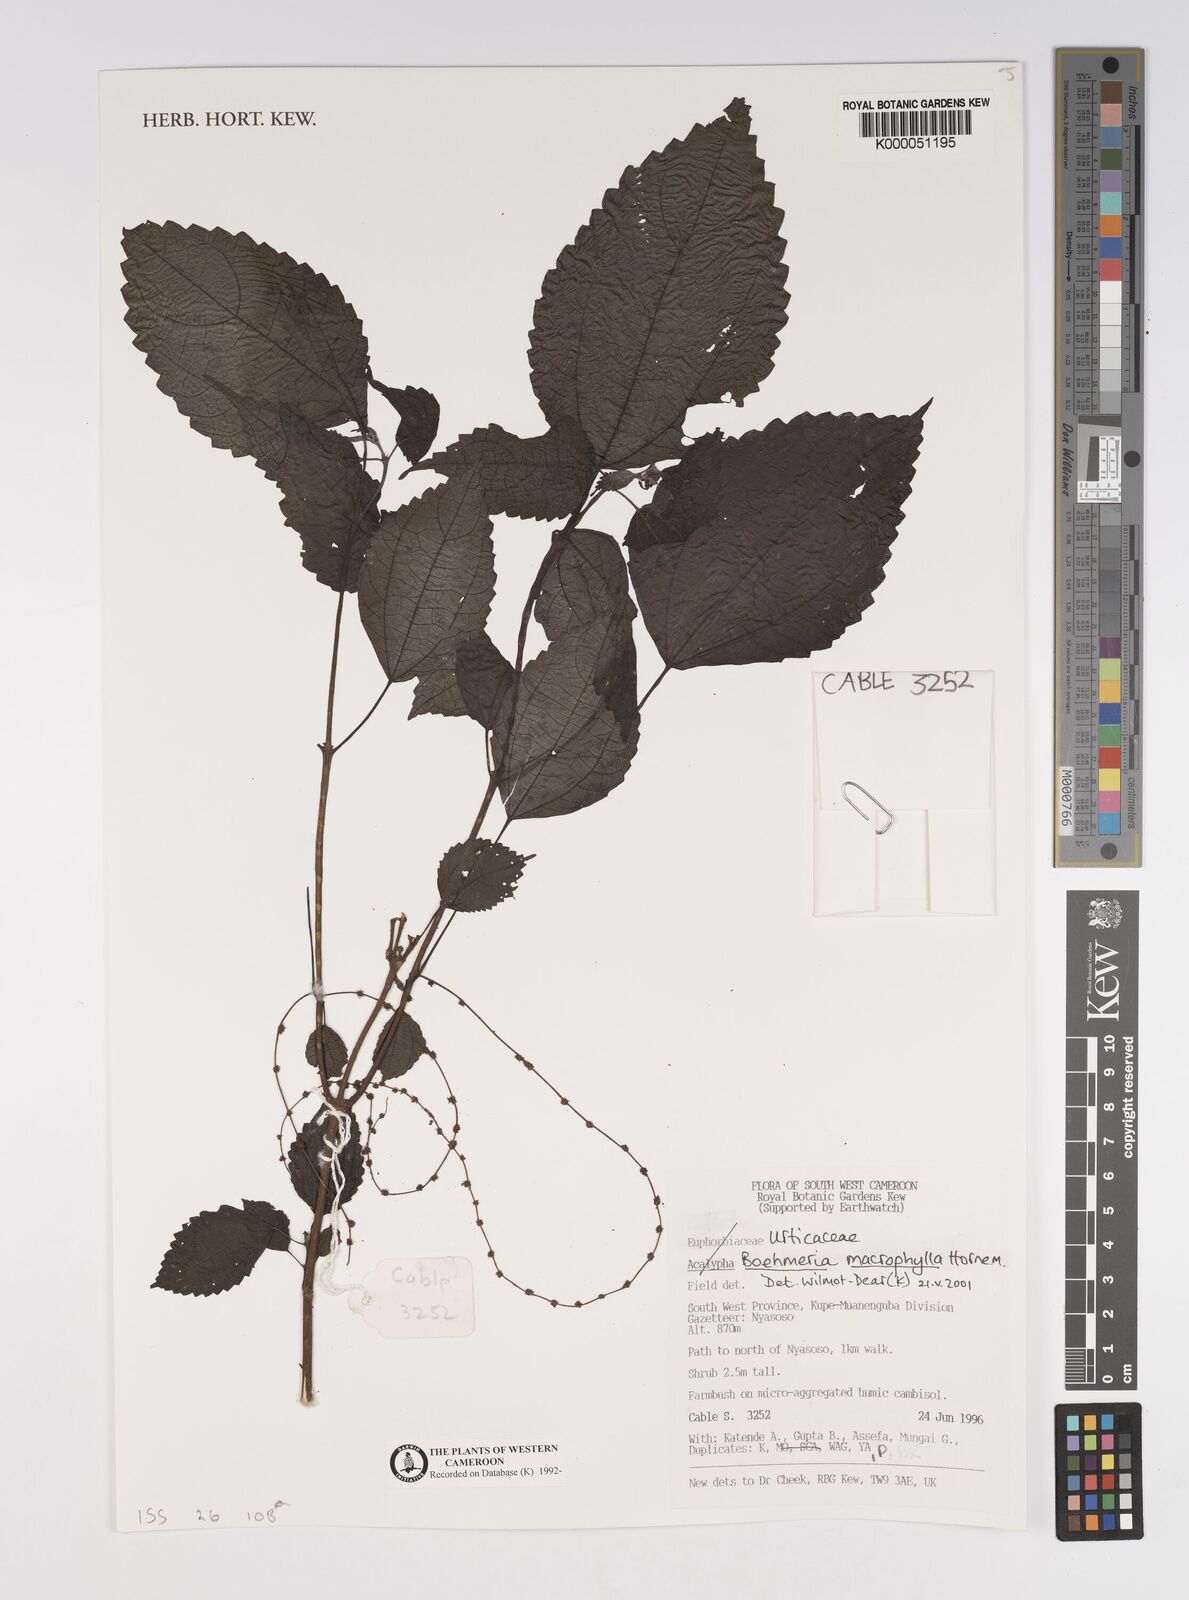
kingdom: Plantae
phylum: Tracheophyta
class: Magnoliopsida
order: Rosales
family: Urticaceae
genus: Boehmeria
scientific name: Boehmeria virgata
